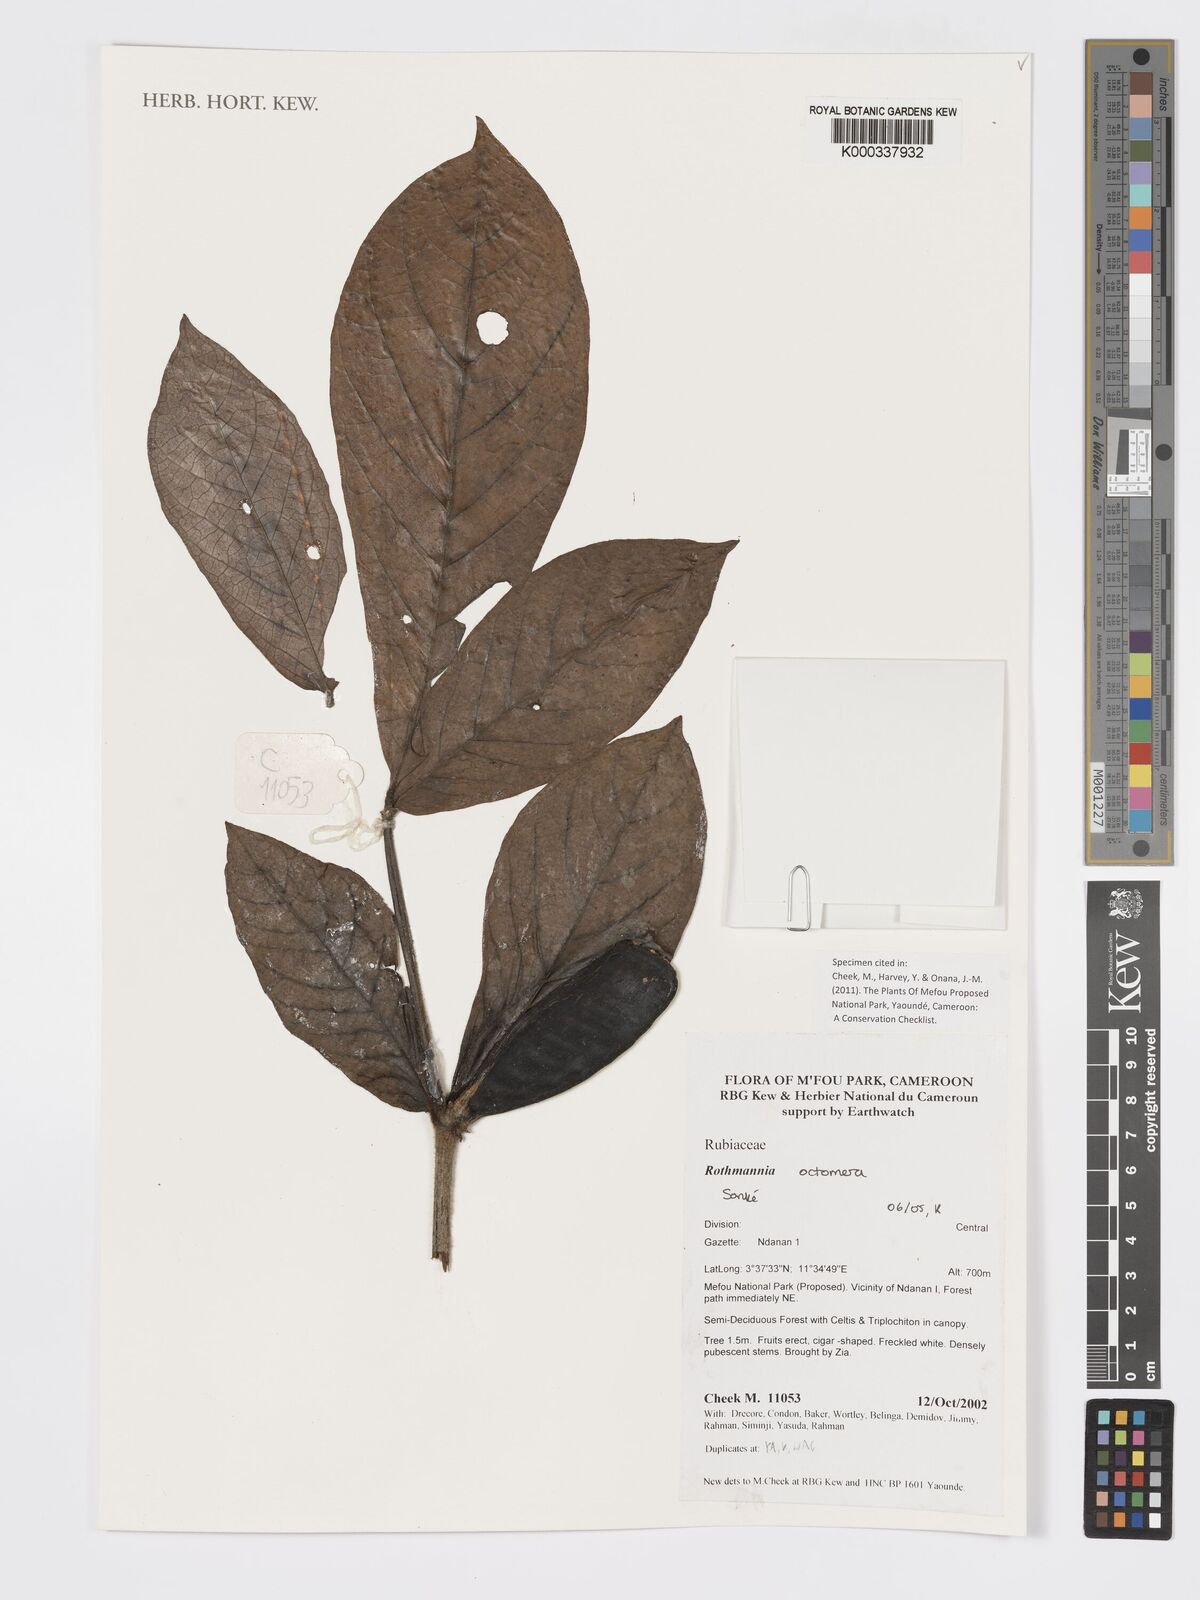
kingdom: Plantae
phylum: Tracheophyta
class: Magnoliopsida
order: Gentianales
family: Rubiaceae
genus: Rothmannia
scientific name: Rothmannia octomera
